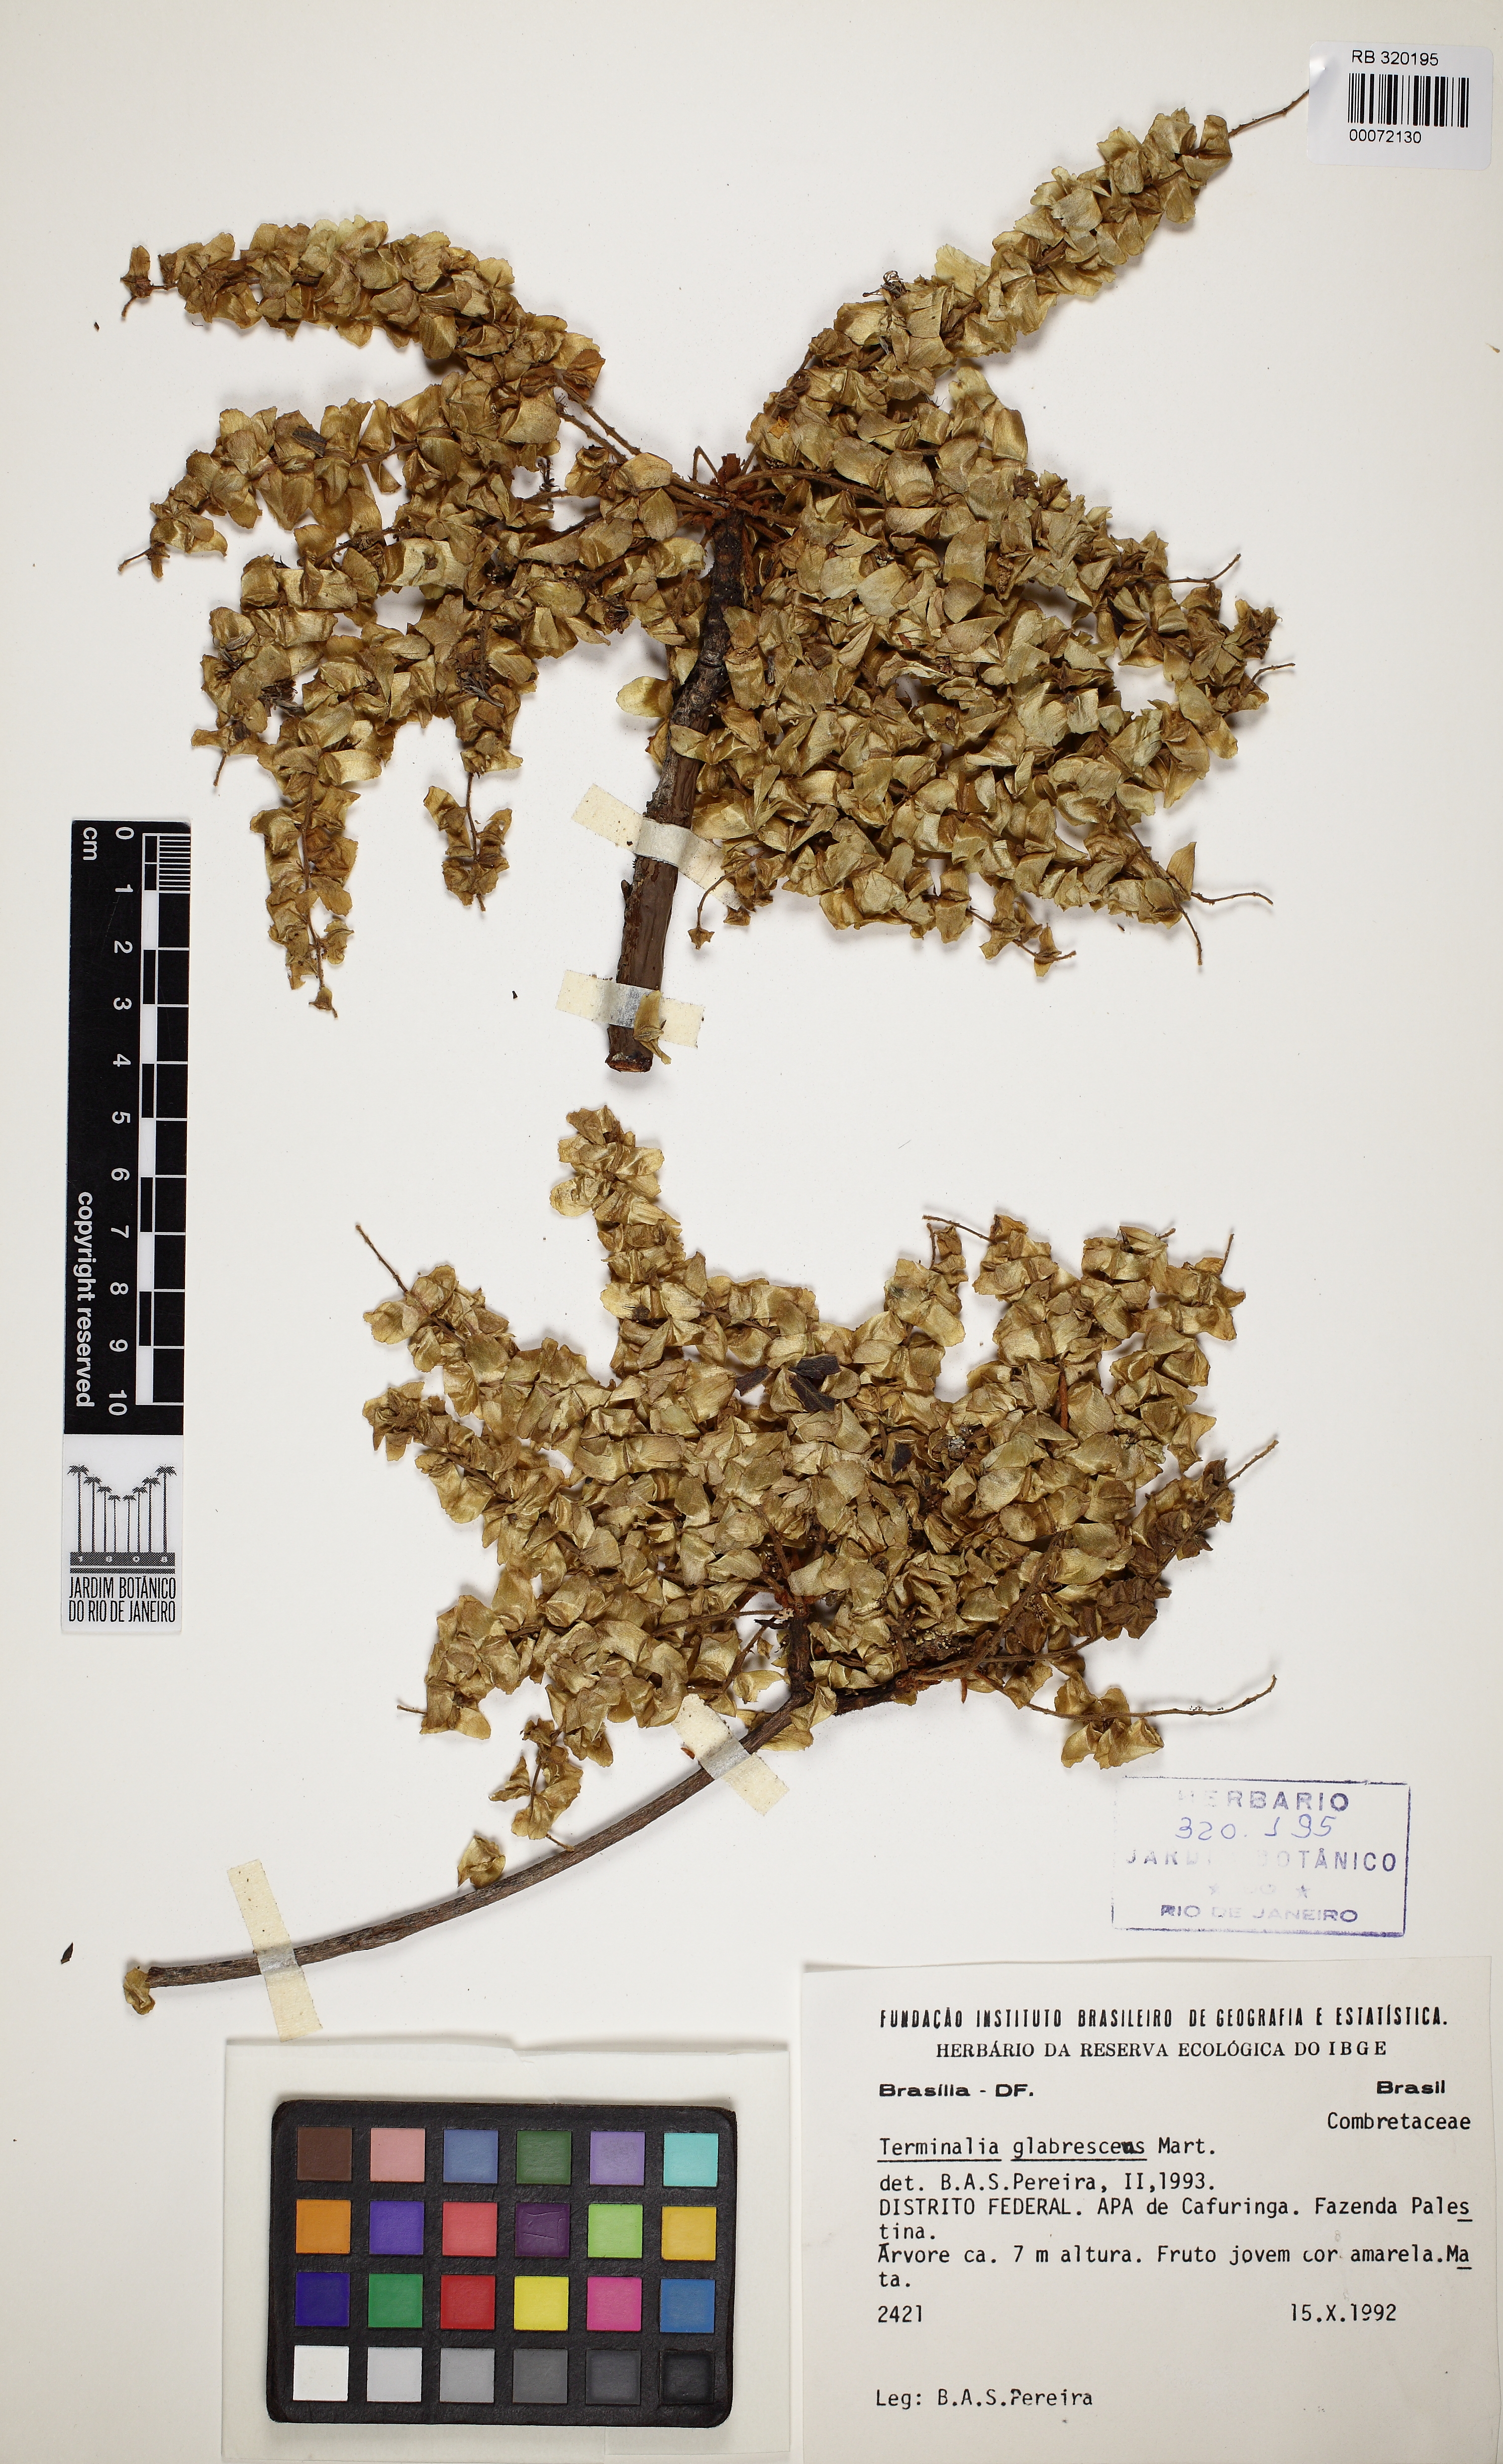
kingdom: Plantae
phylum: Tracheophyta
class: Magnoliopsida
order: Myrtales
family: Combretaceae
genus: Terminalia
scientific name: Terminalia glabrescens
